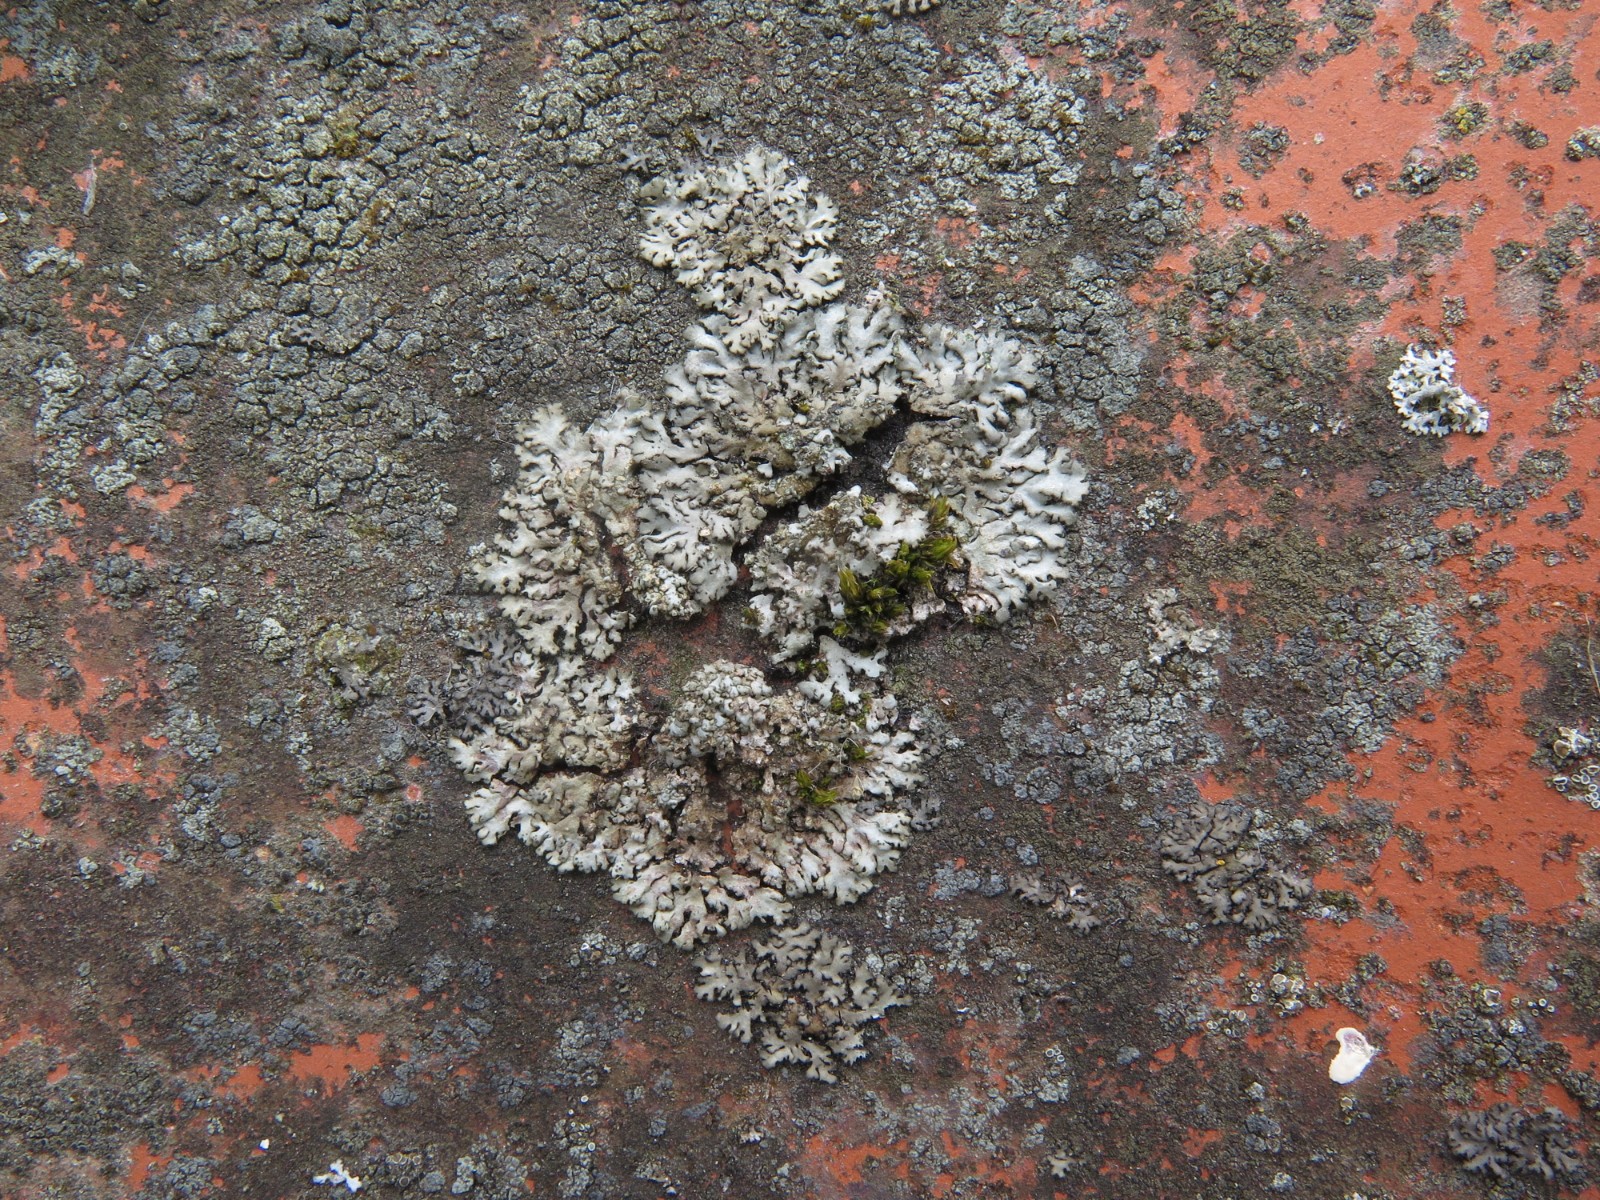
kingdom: Fungi
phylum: Ascomycota
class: Lecanoromycetes
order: Caliciales
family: Physciaceae
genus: Phaeophyscia
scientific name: Phaeophyscia orbicularis
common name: grågrøn rosetlav
